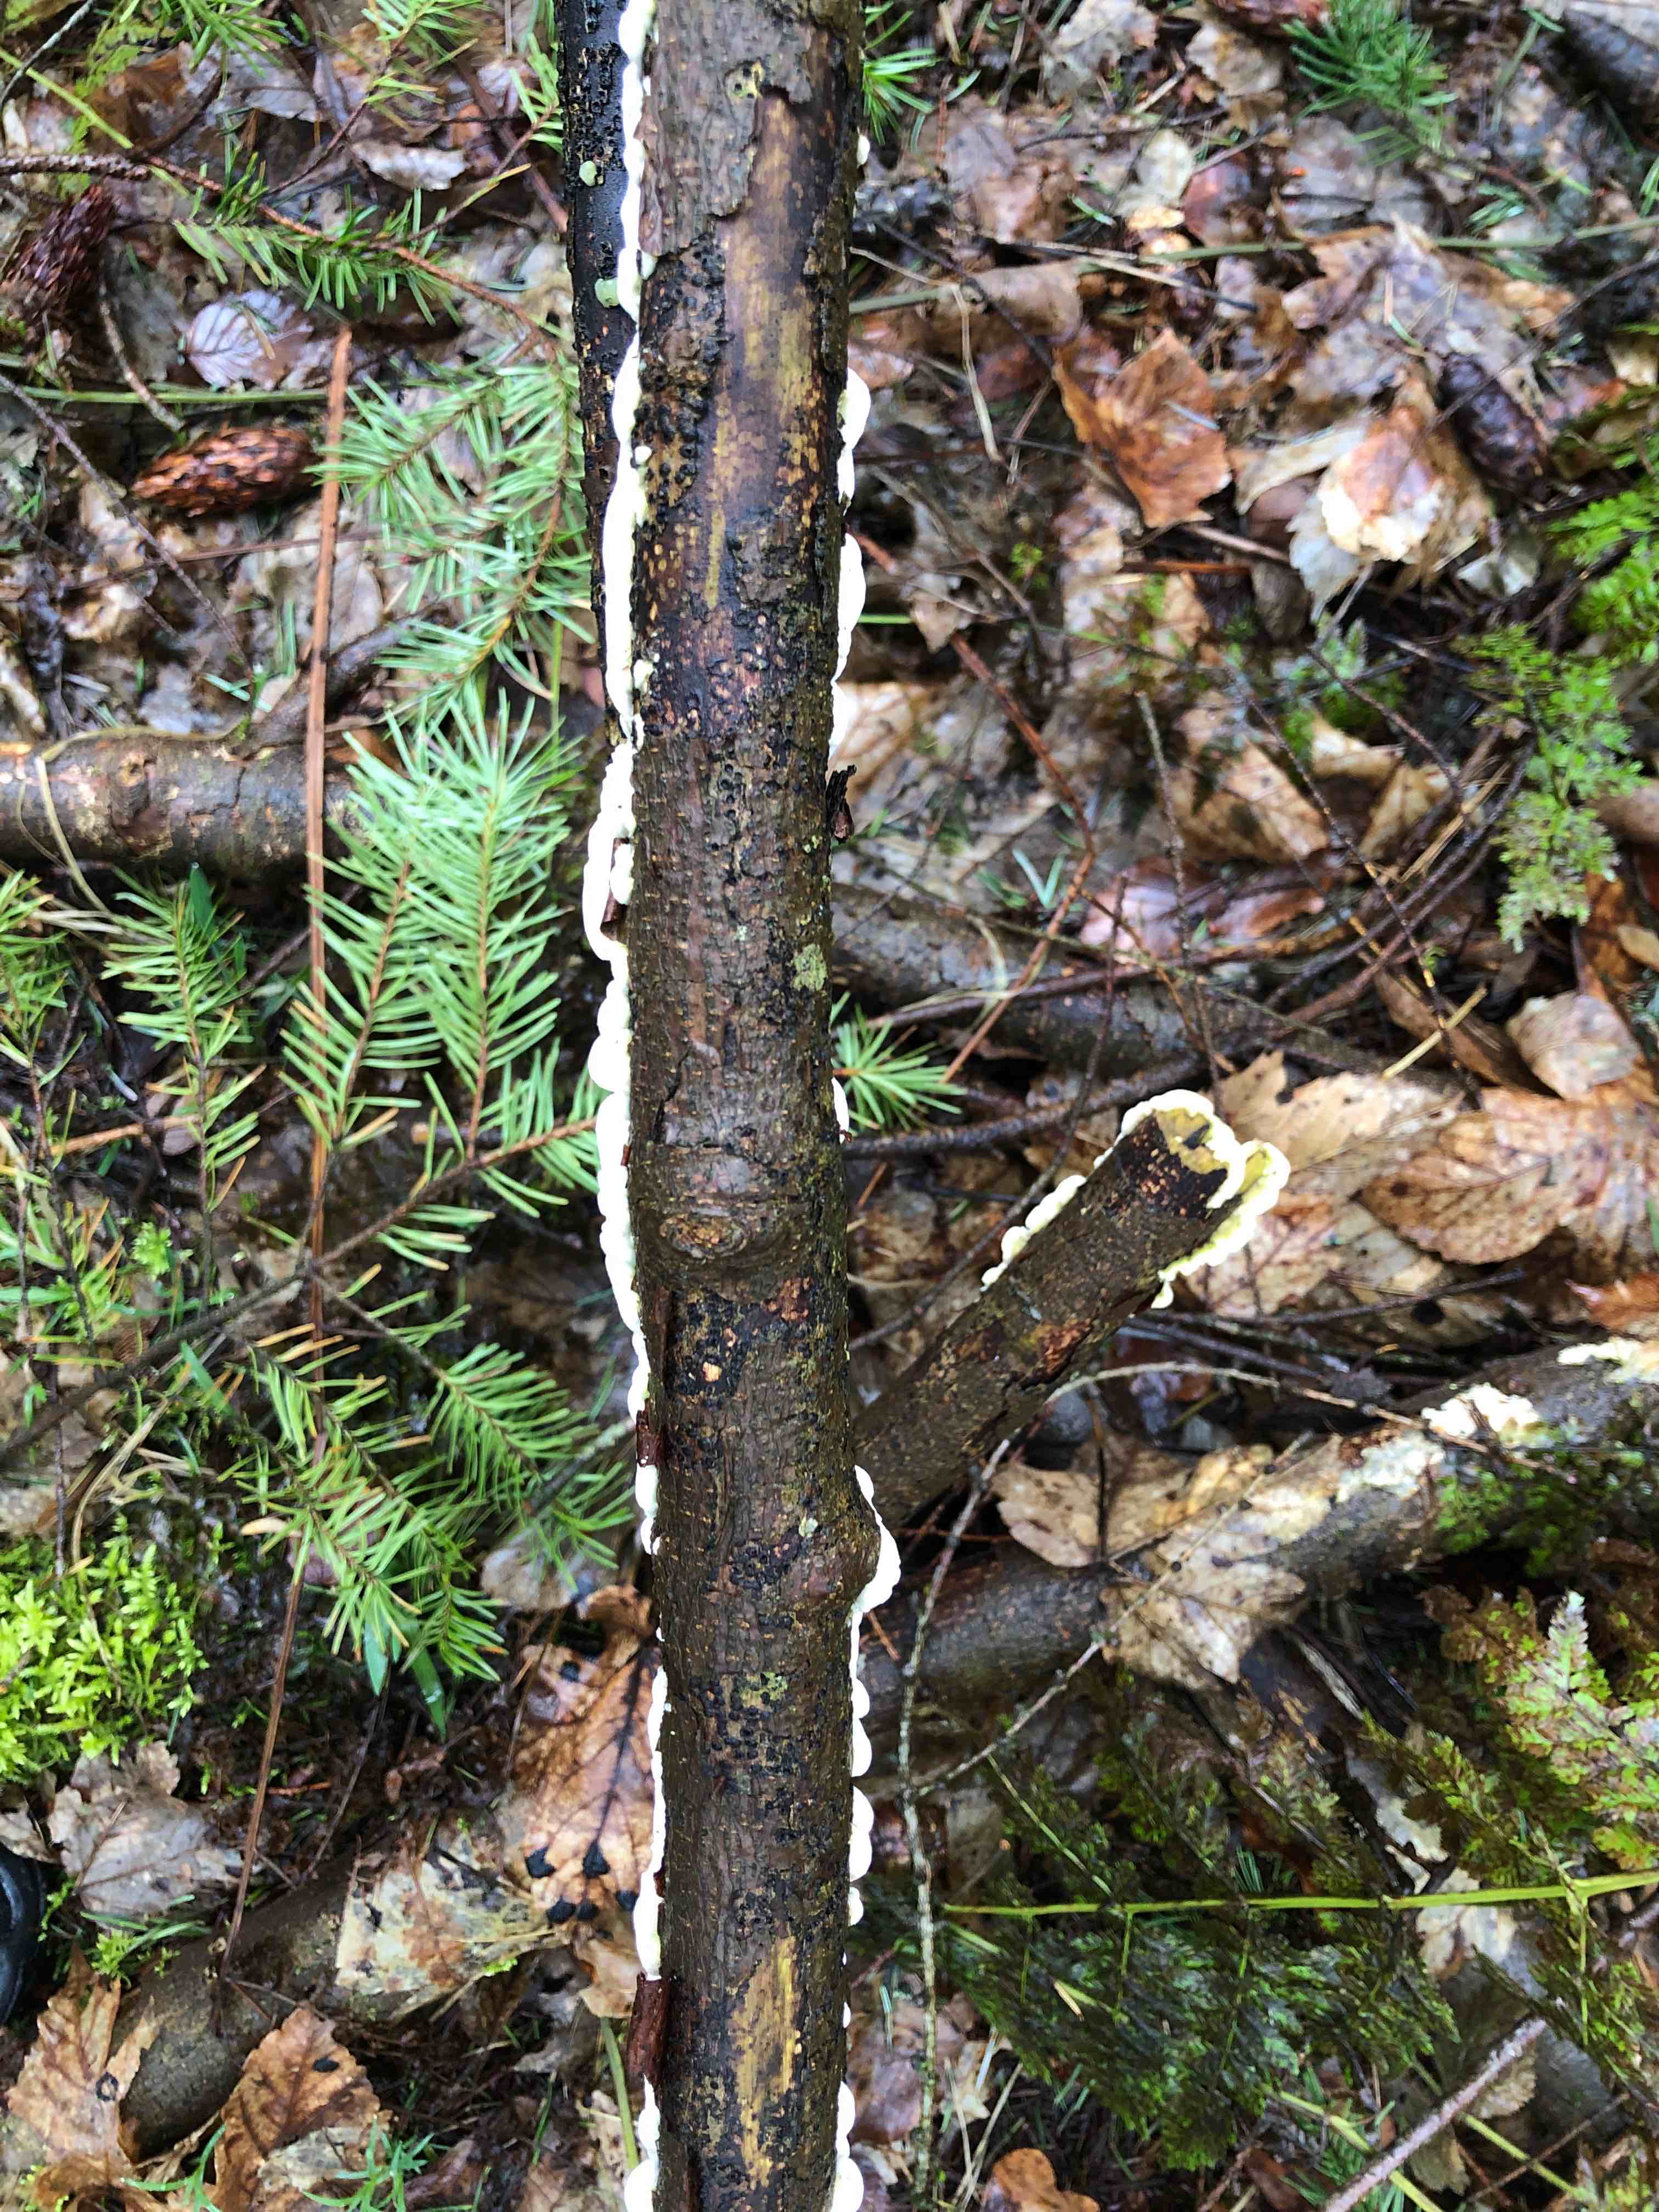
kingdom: Fungi
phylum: Basidiomycota
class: Agaricomycetes
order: Polyporales
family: Irpicaceae
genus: Byssomerulius
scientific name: Byssomerulius corium
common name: læder-åresvamp
